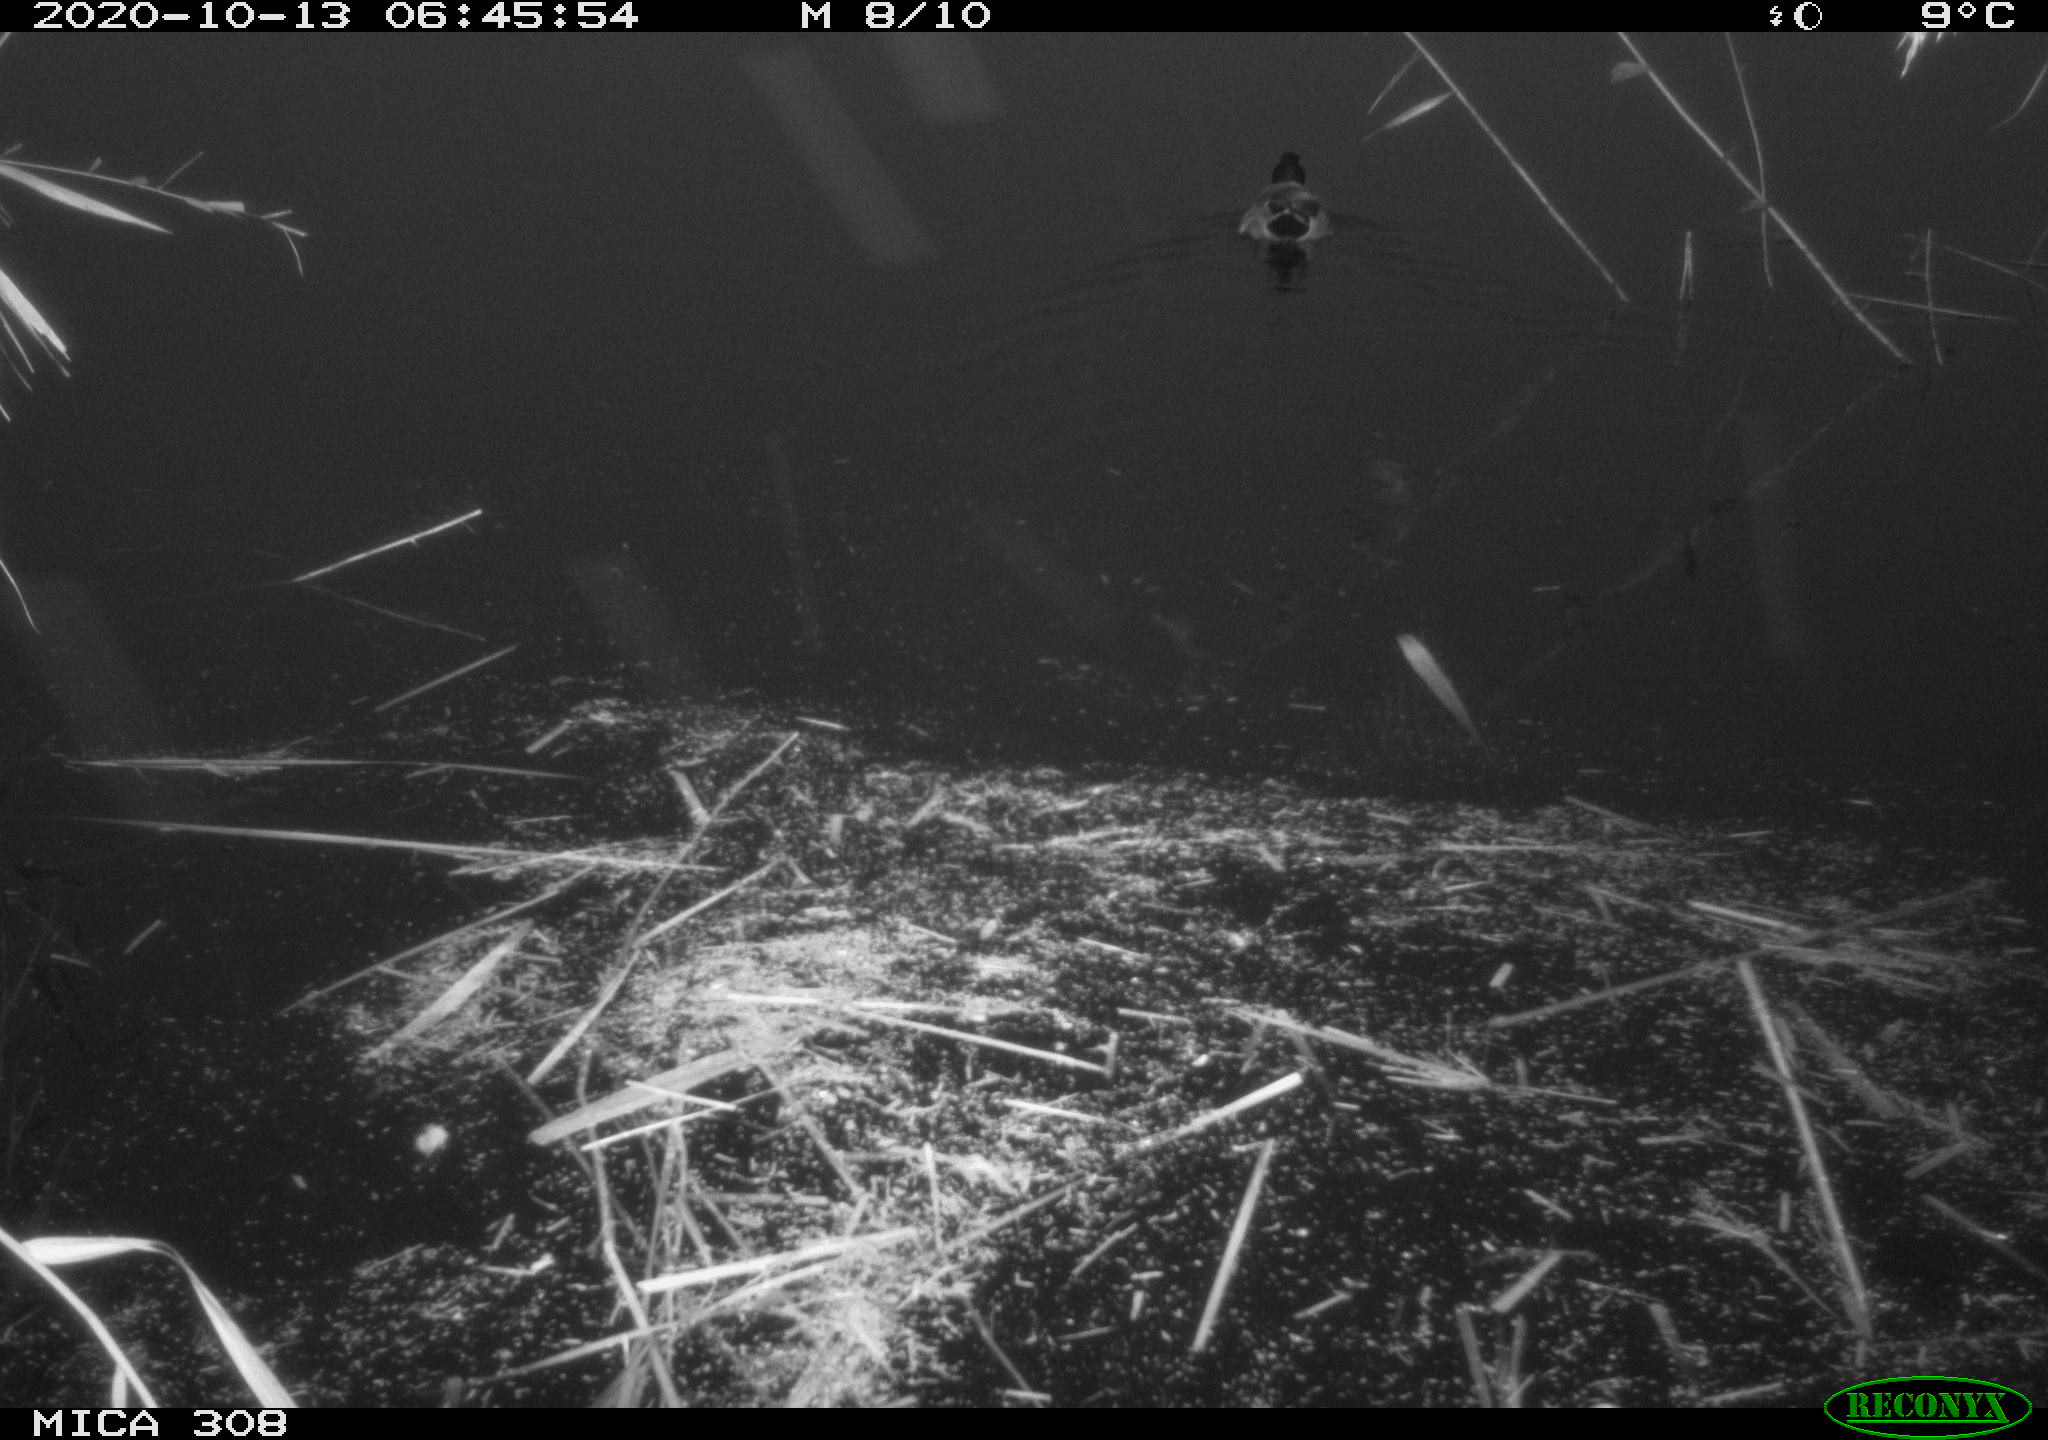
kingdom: Animalia
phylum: Chordata
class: Aves
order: Anseriformes
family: Anatidae
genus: Anas
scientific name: Anas platyrhynchos
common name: Mallard
